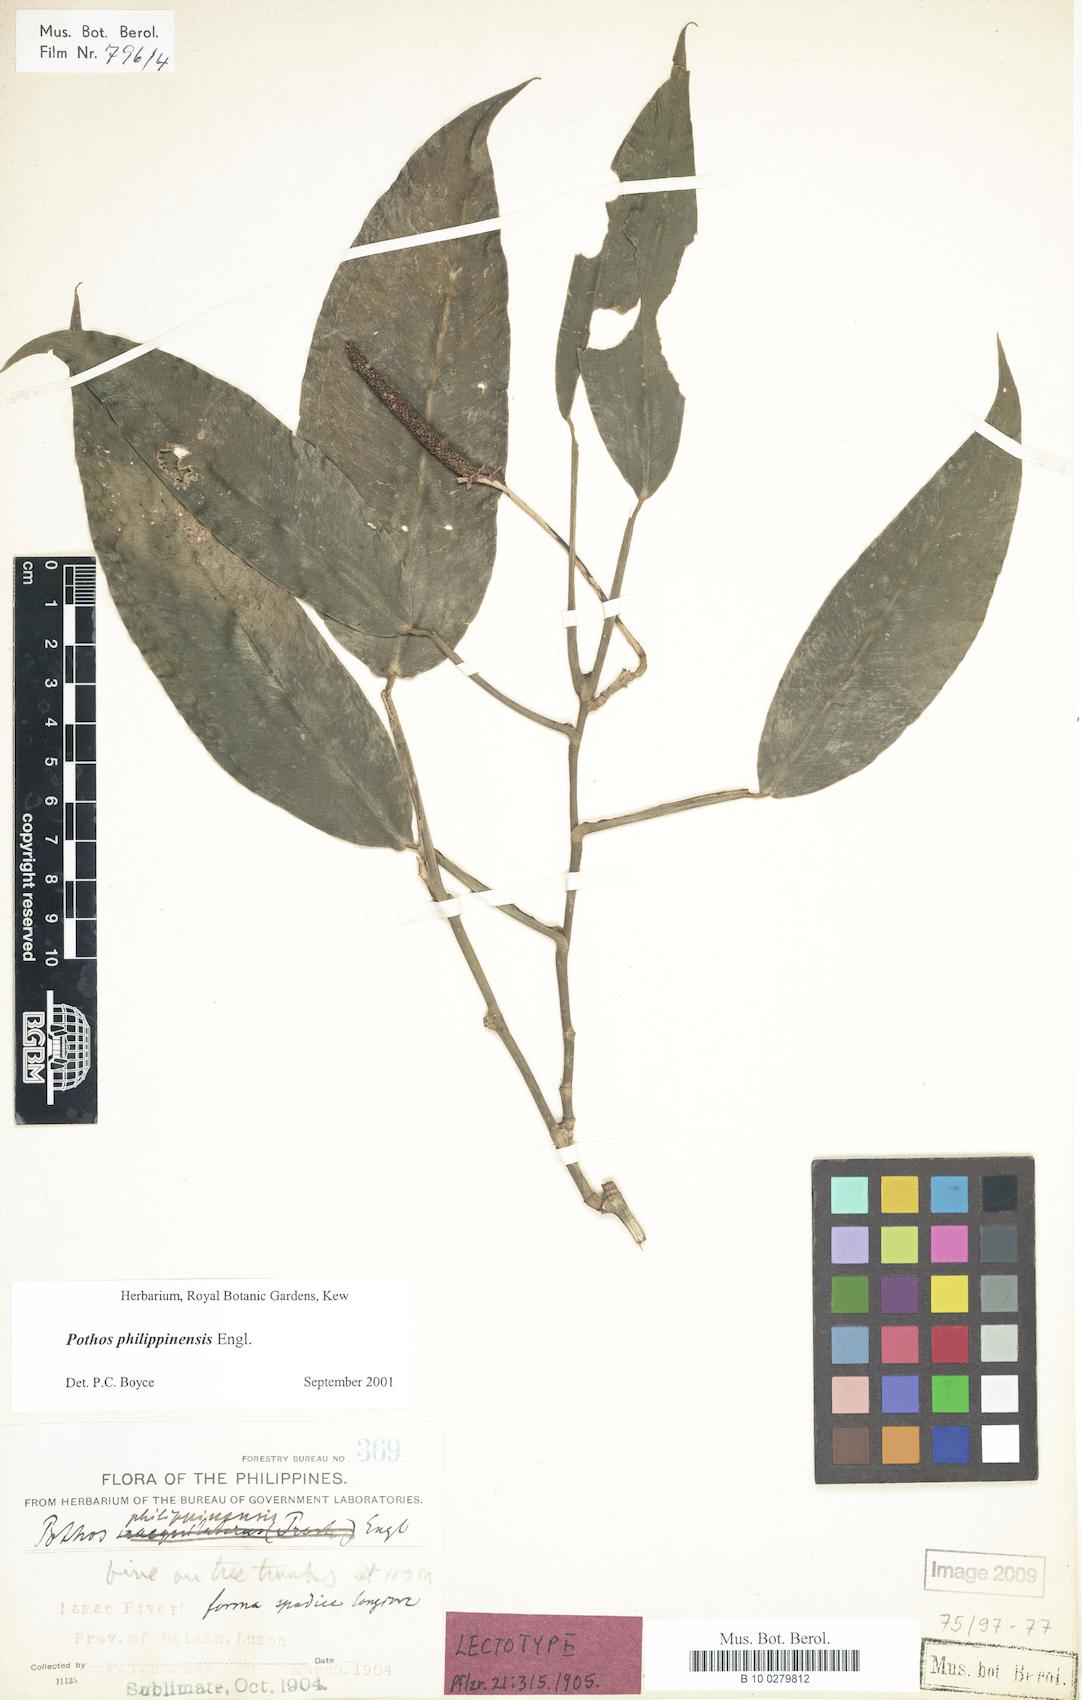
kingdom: Plantae
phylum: Tracheophyta
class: Liliopsida
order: Alismatales
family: Araceae
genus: Pothos
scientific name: Pothos philippinensis
